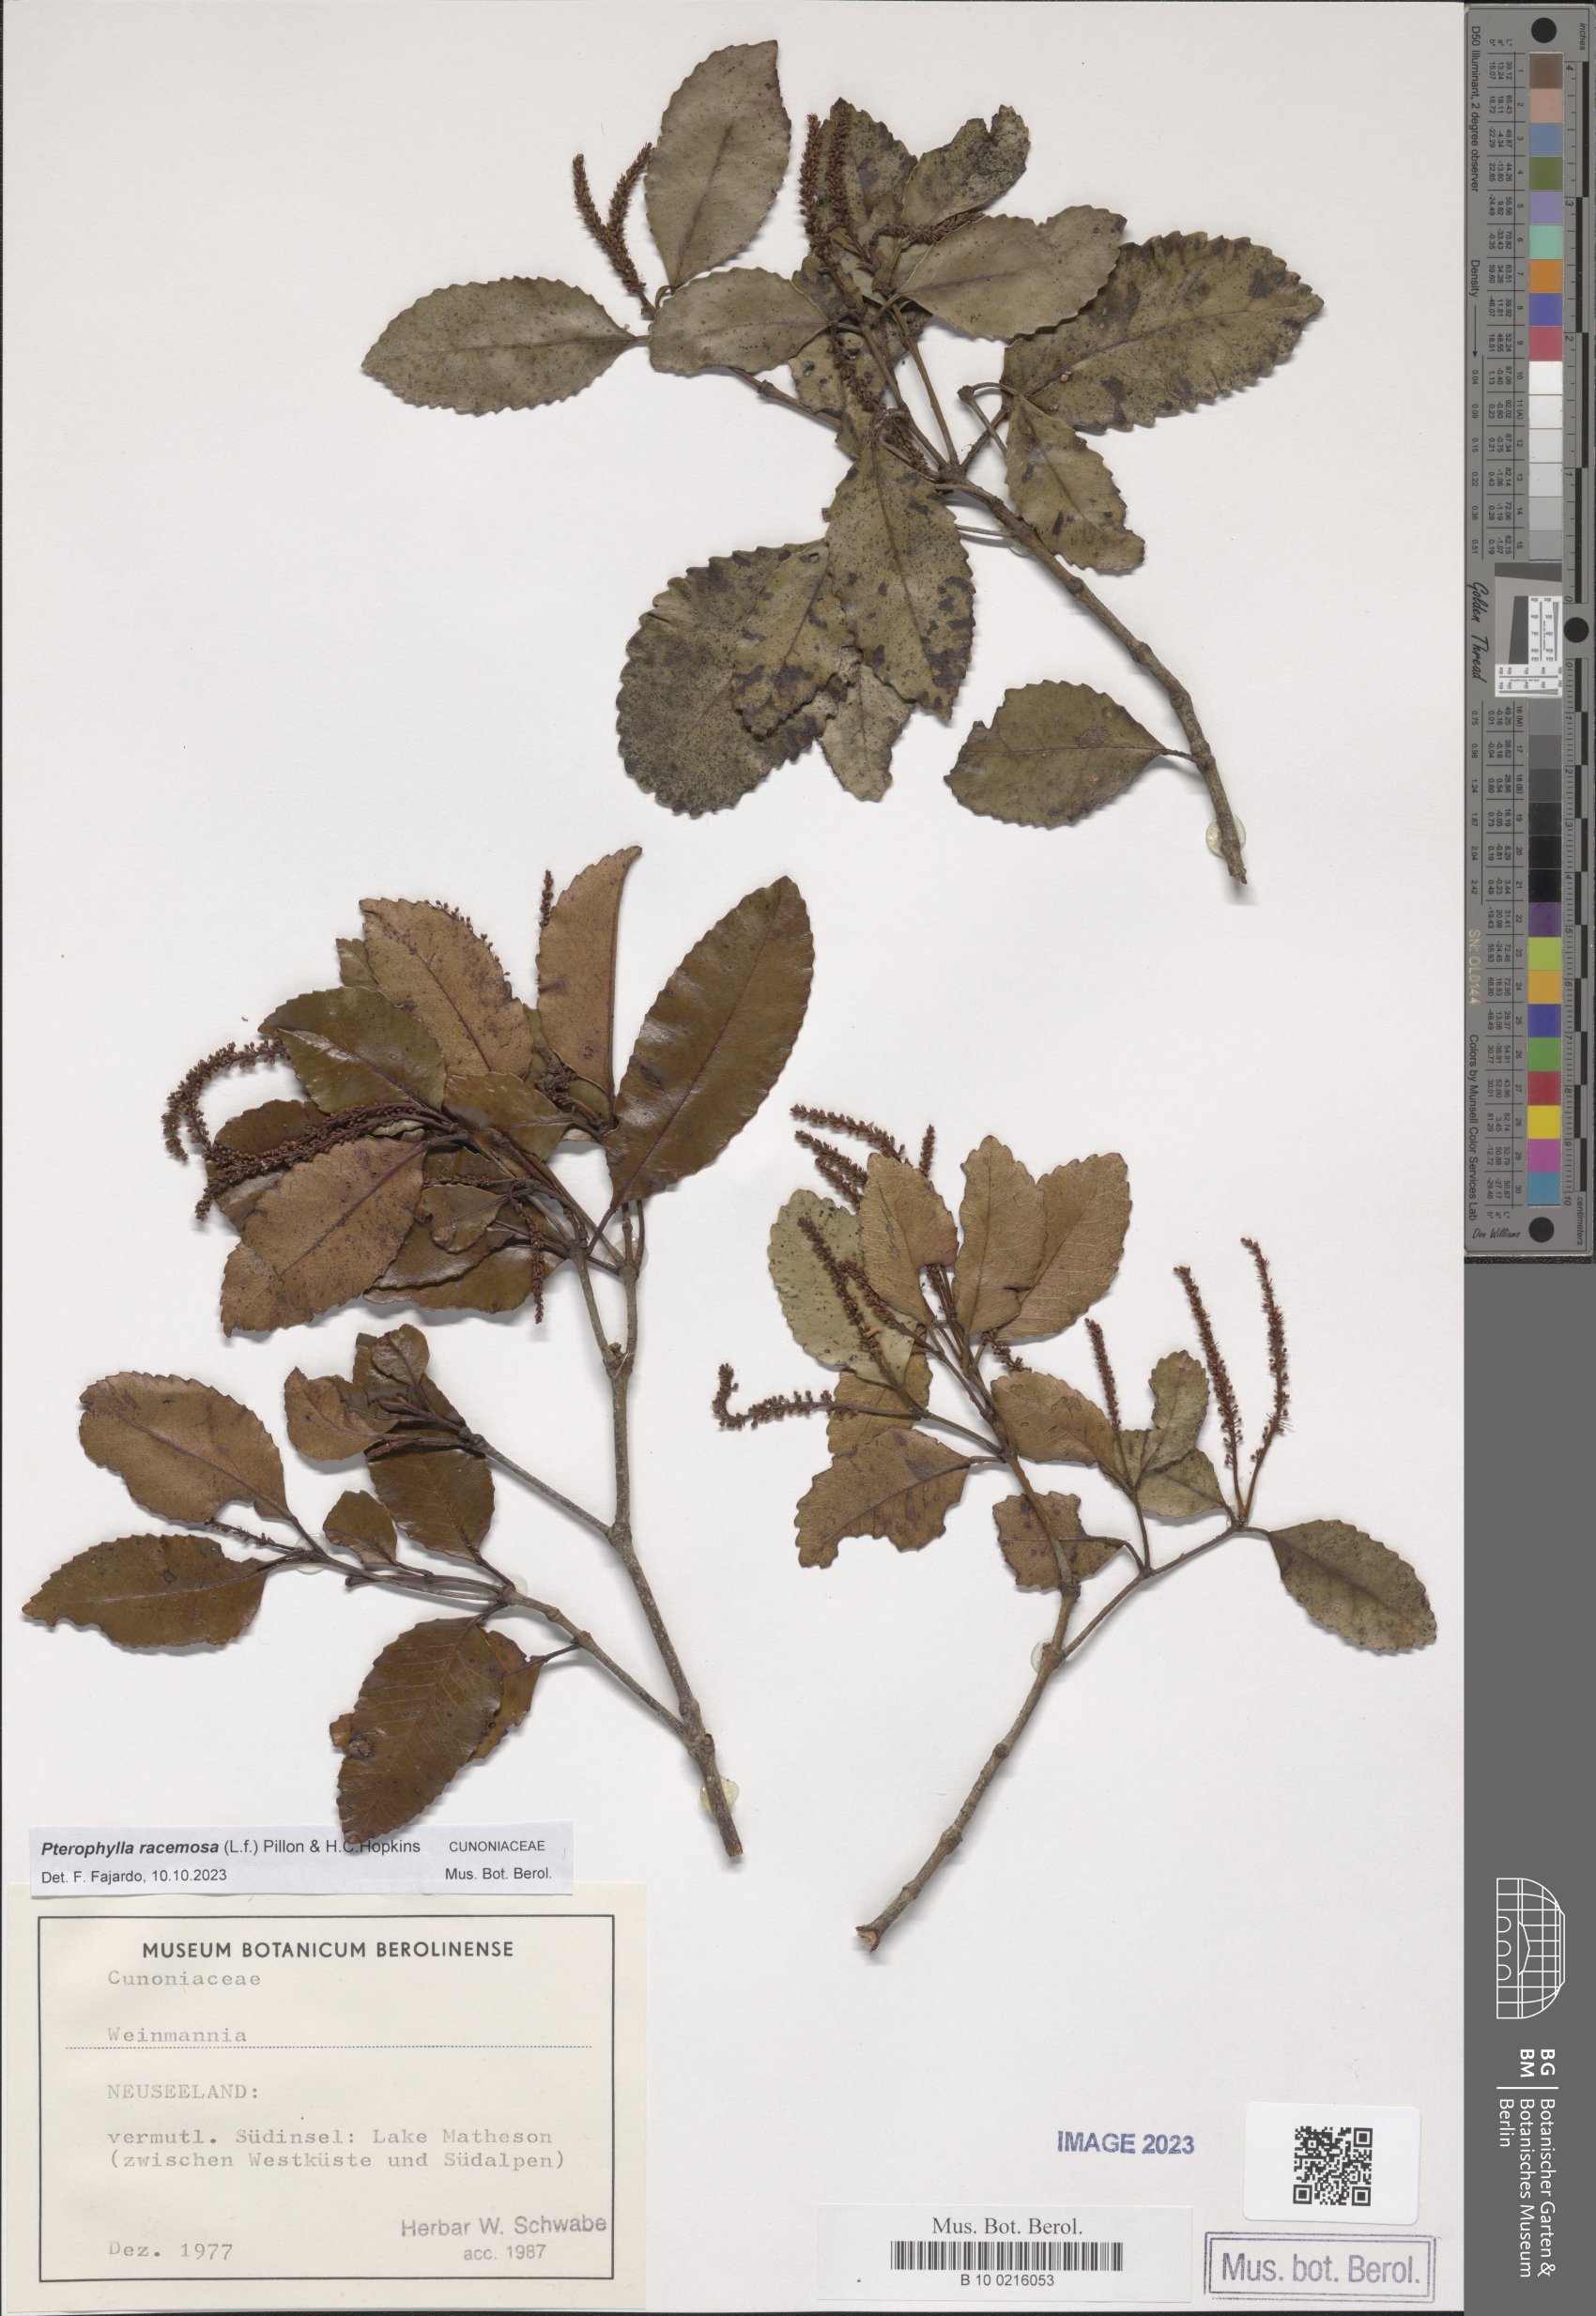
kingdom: Plantae
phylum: Tracheophyta
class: Magnoliopsida
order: Oxalidales
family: Cunoniaceae
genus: Pterophylla
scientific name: Pterophylla racemosa
